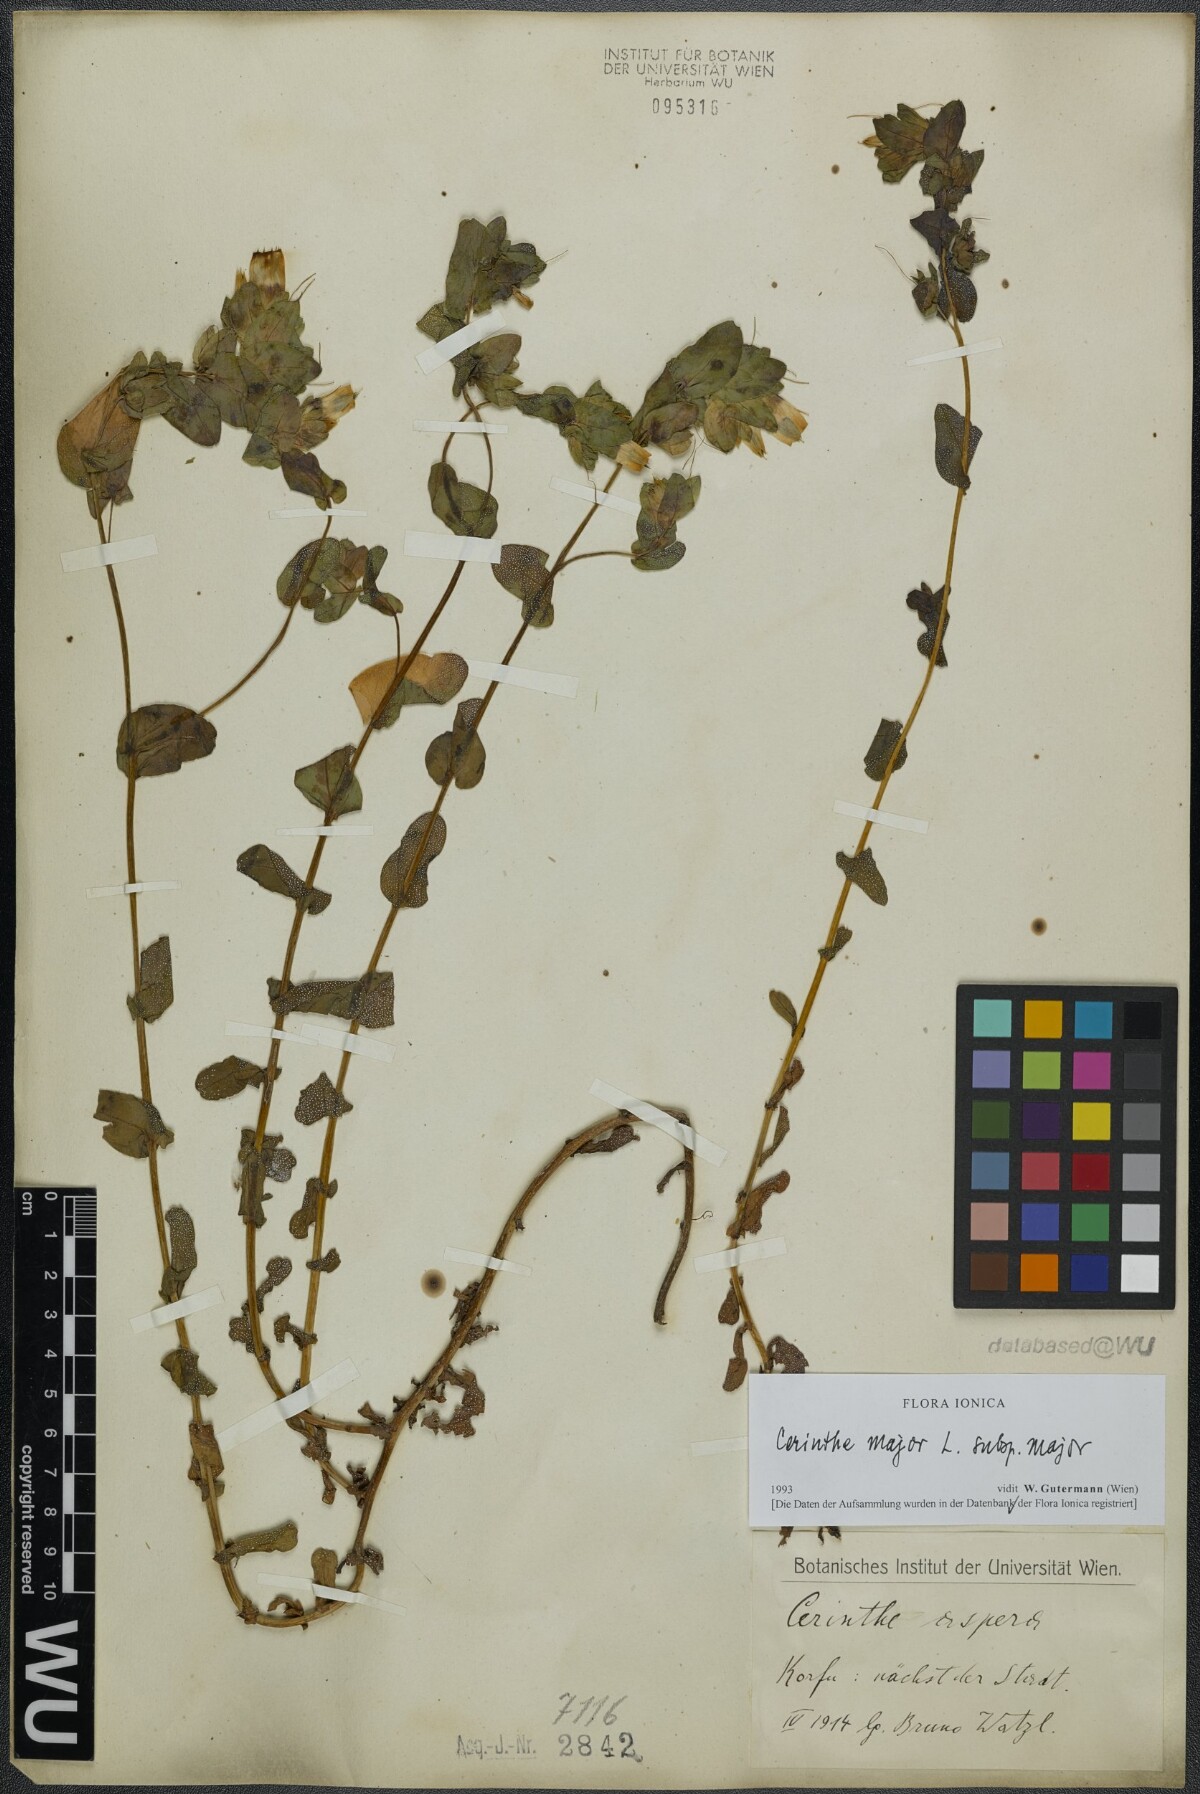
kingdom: Plantae
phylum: Tracheophyta
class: Magnoliopsida
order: Boraginales
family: Boraginaceae
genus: Cerinthe
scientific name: Cerinthe major
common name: Greater honeywort
